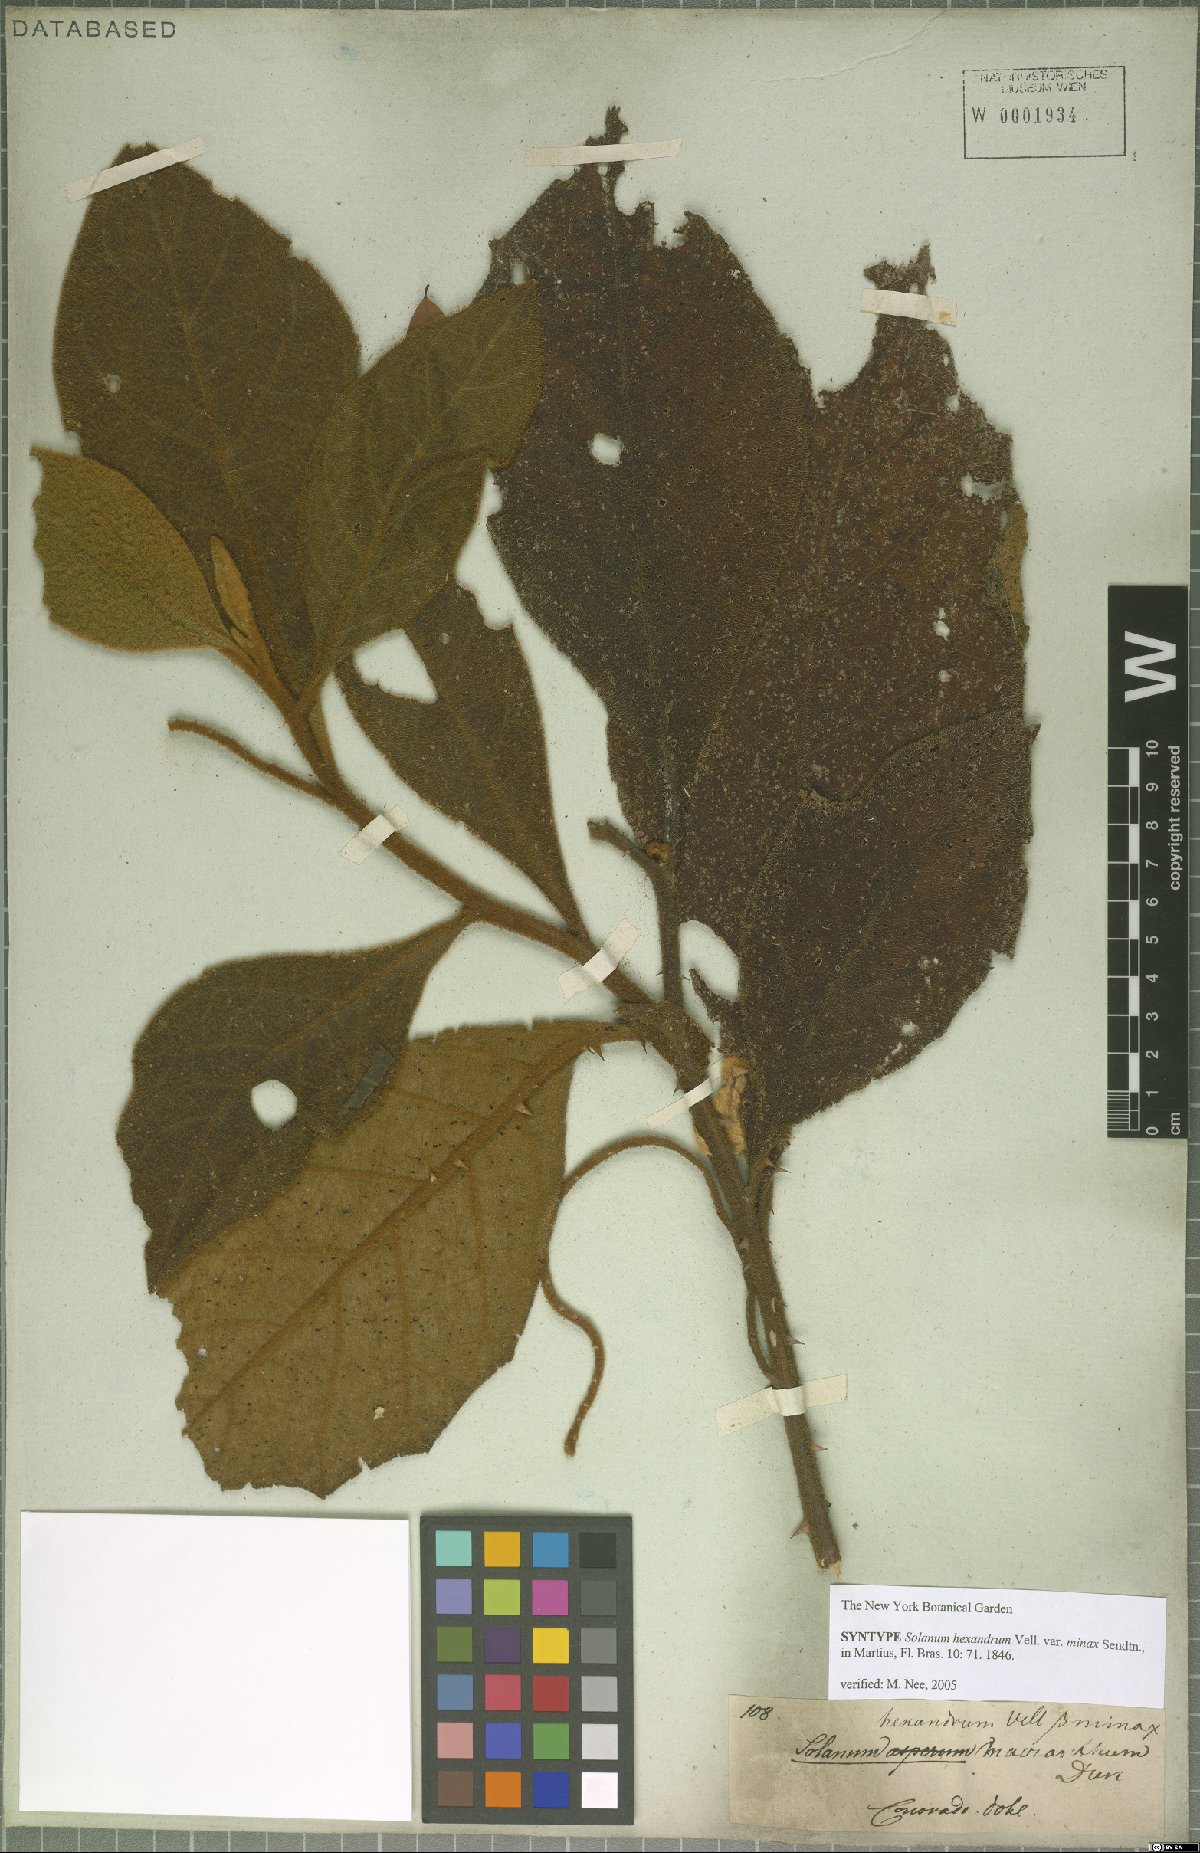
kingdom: Plantae
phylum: Tracheophyta
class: Magnoliopsida
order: Solanales
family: Solanaceae
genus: Solanum
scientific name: Solanum hexandrum
